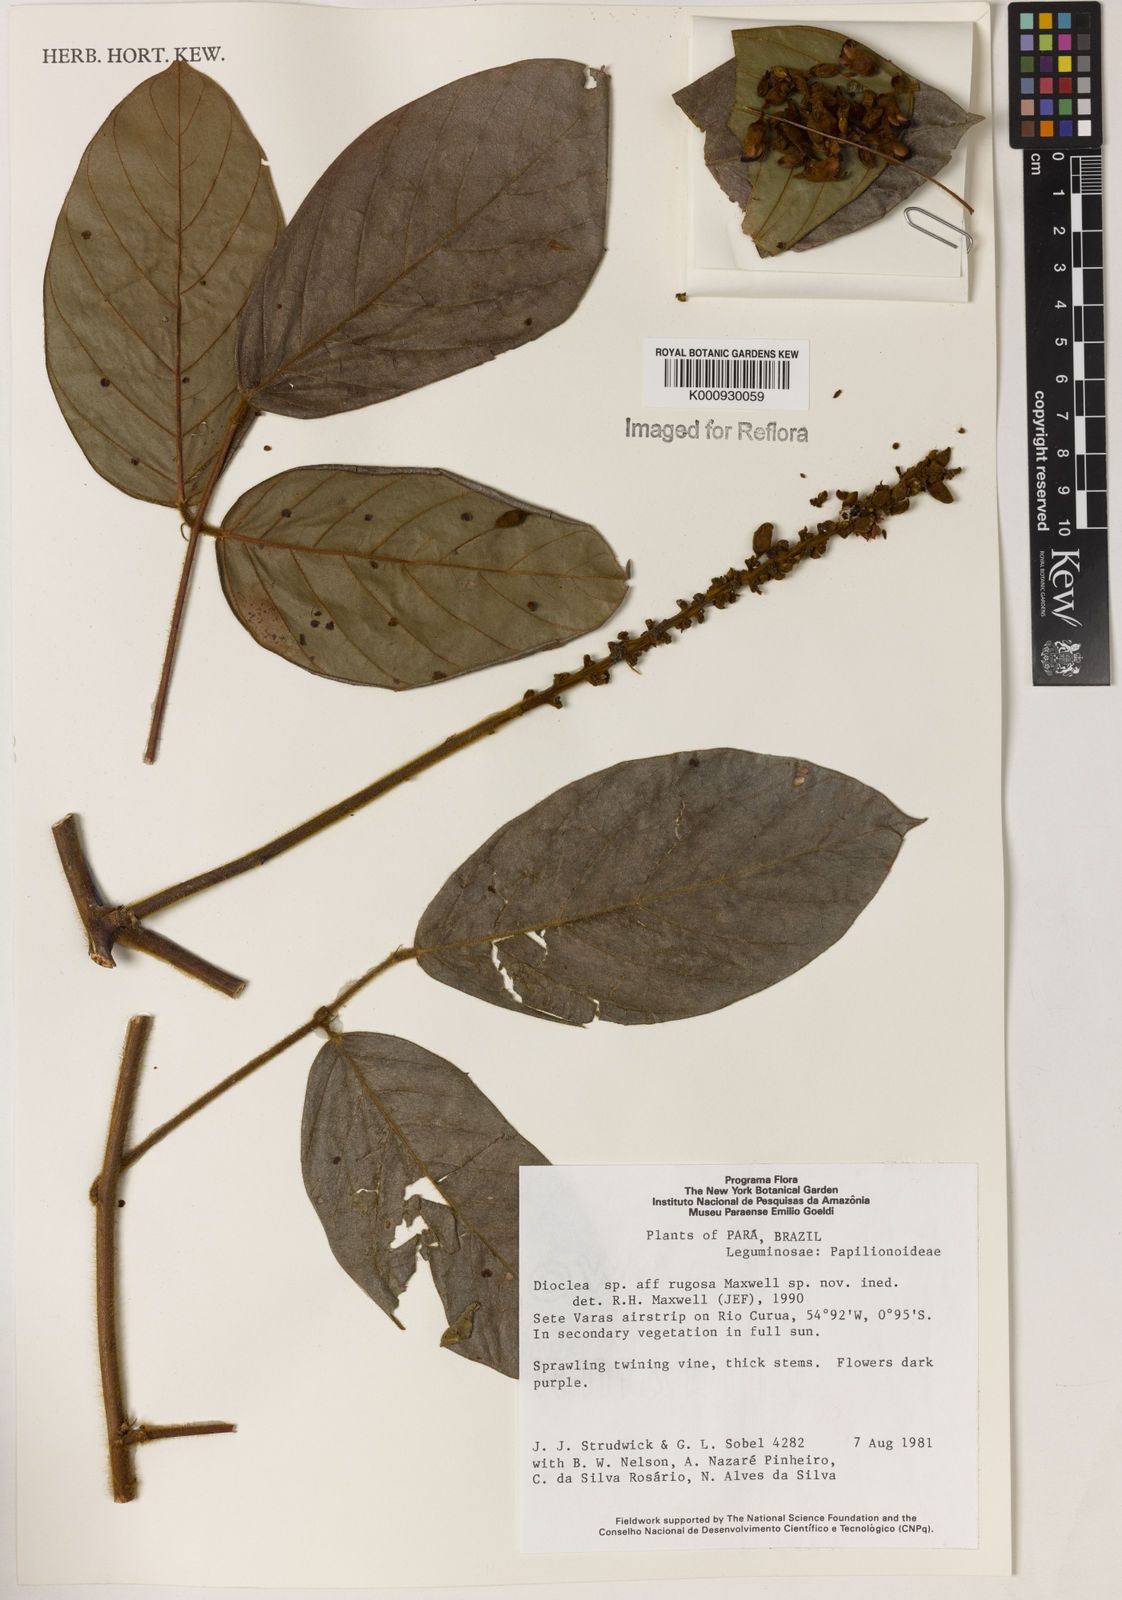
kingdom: Plantae
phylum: Tracheophyta
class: Magnoliopsida
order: Fabales
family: Fabaceae
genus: Dioclea
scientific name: Dioclea
